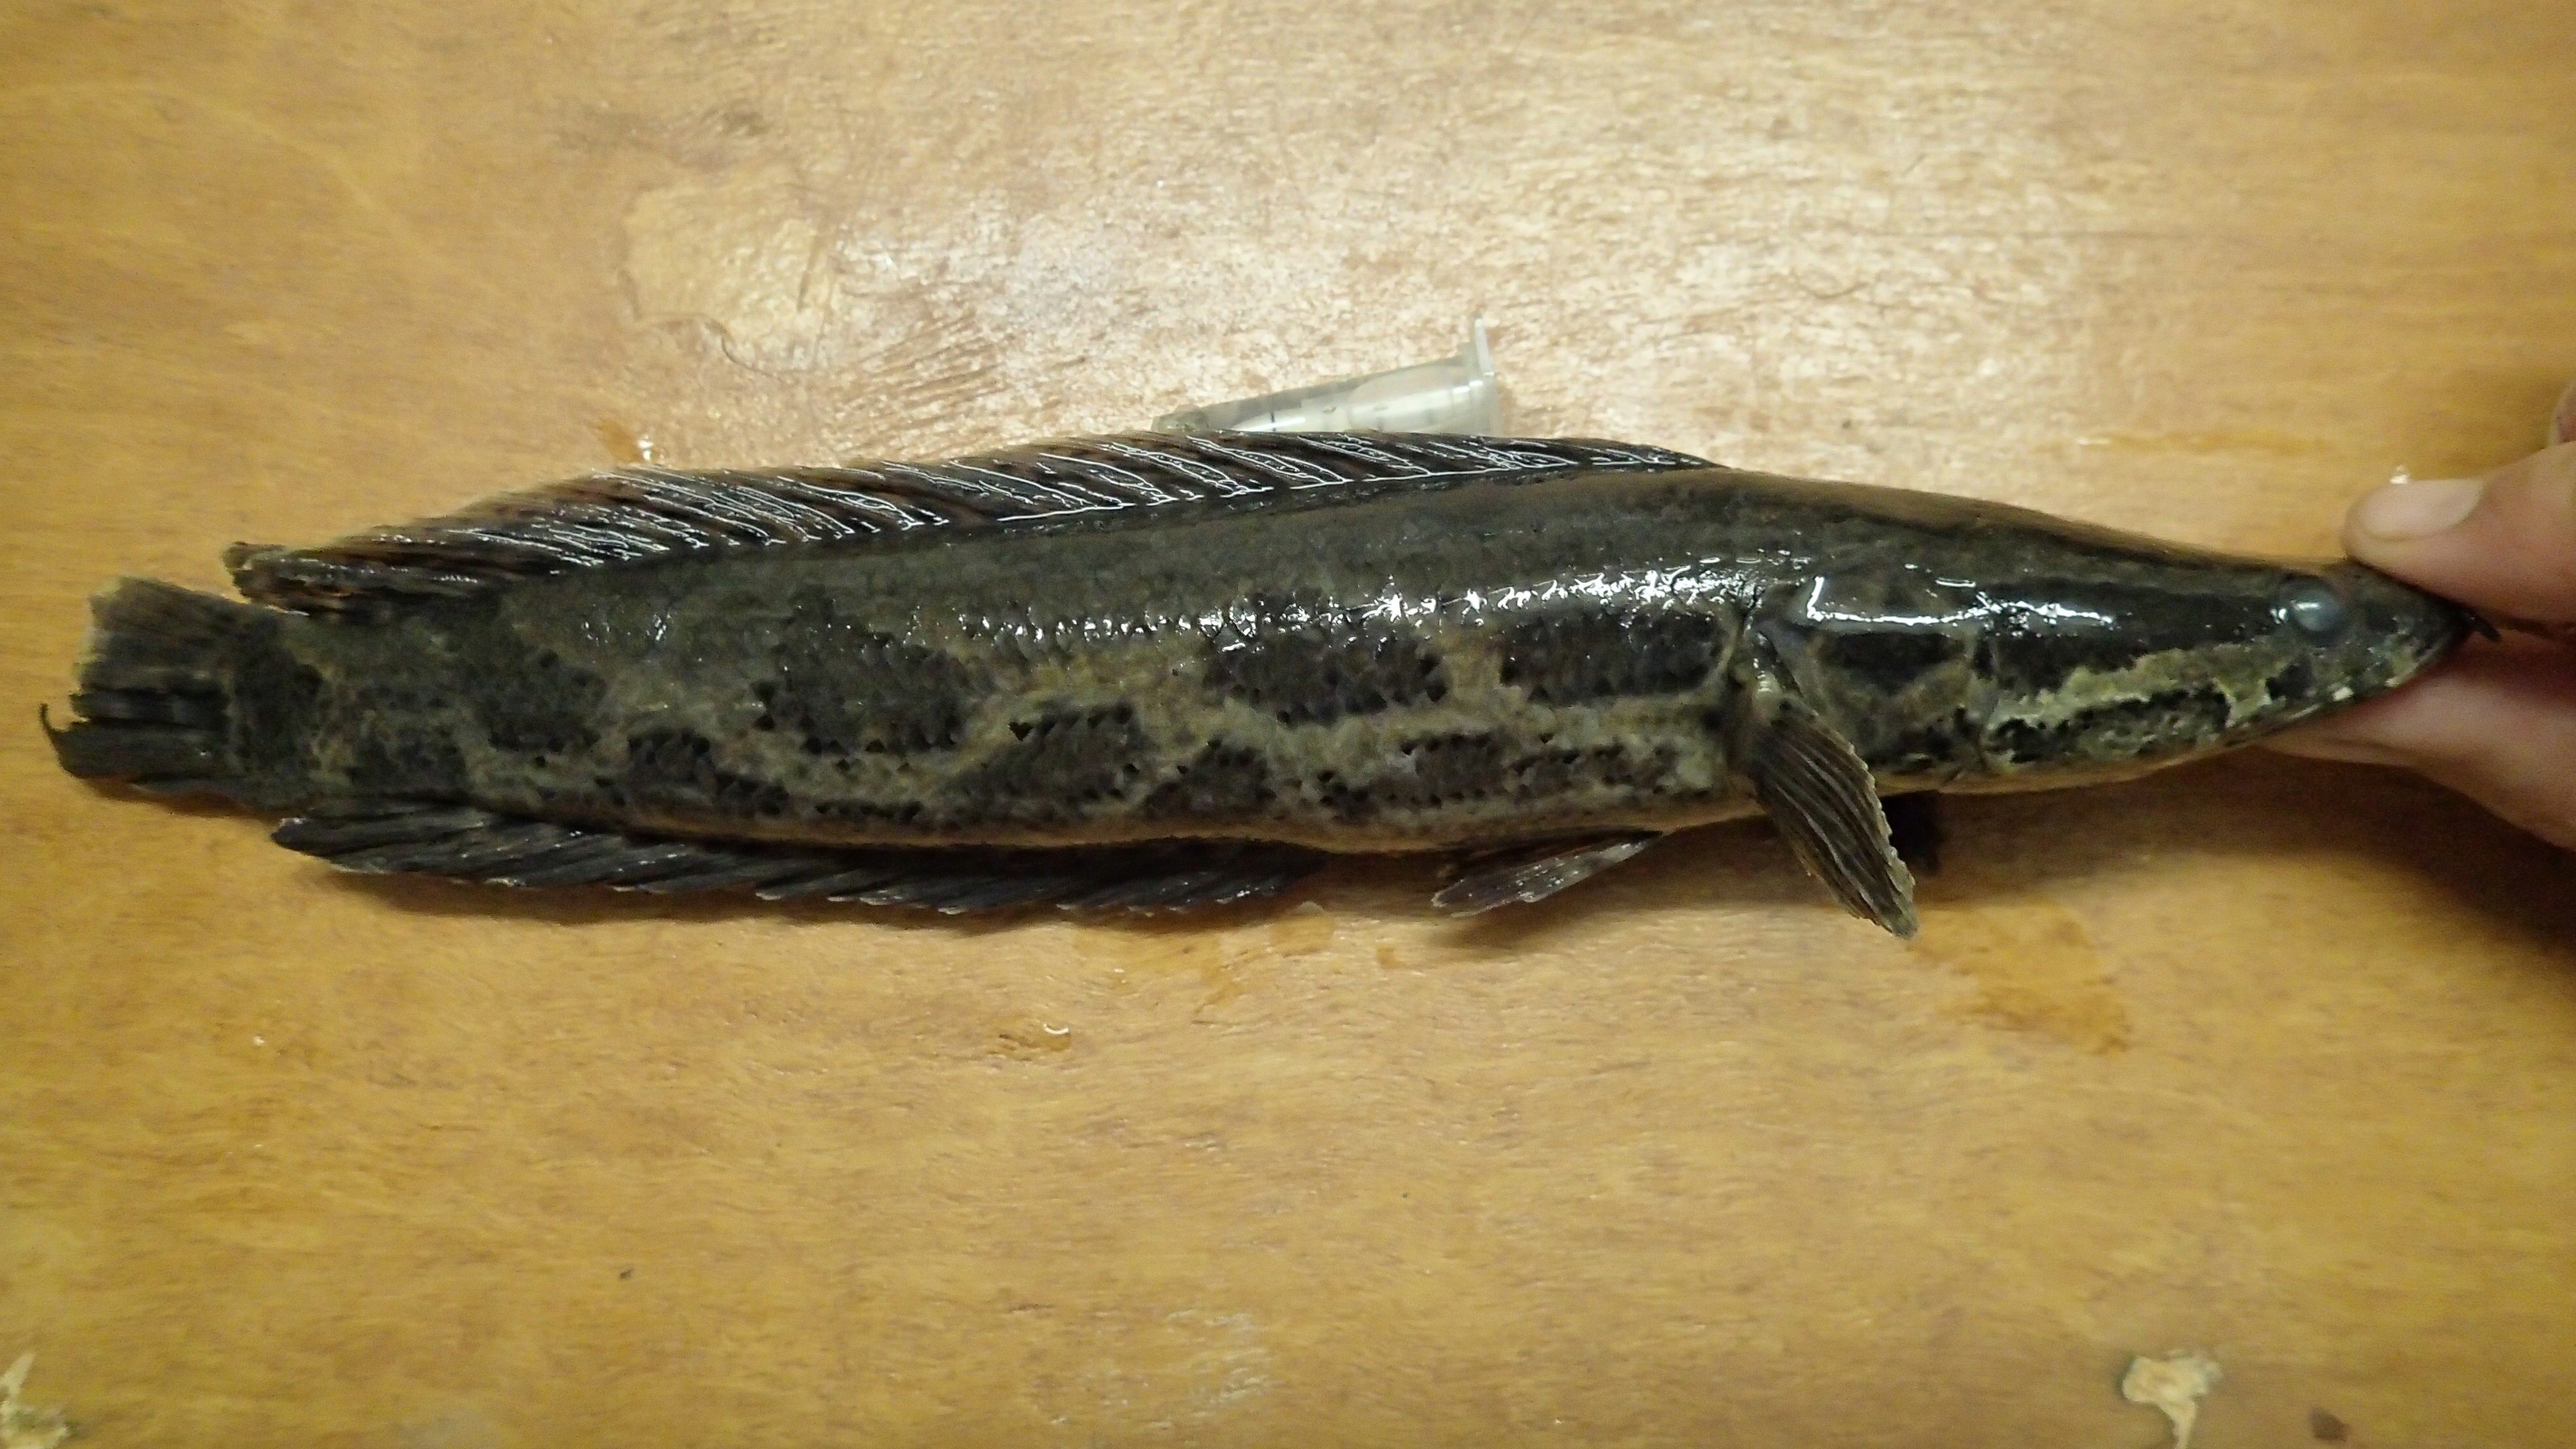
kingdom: Animalia
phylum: Chordata
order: Perciformes
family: Channidae
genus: Parachanna
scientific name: Parachanna obscura
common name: Snake-head
